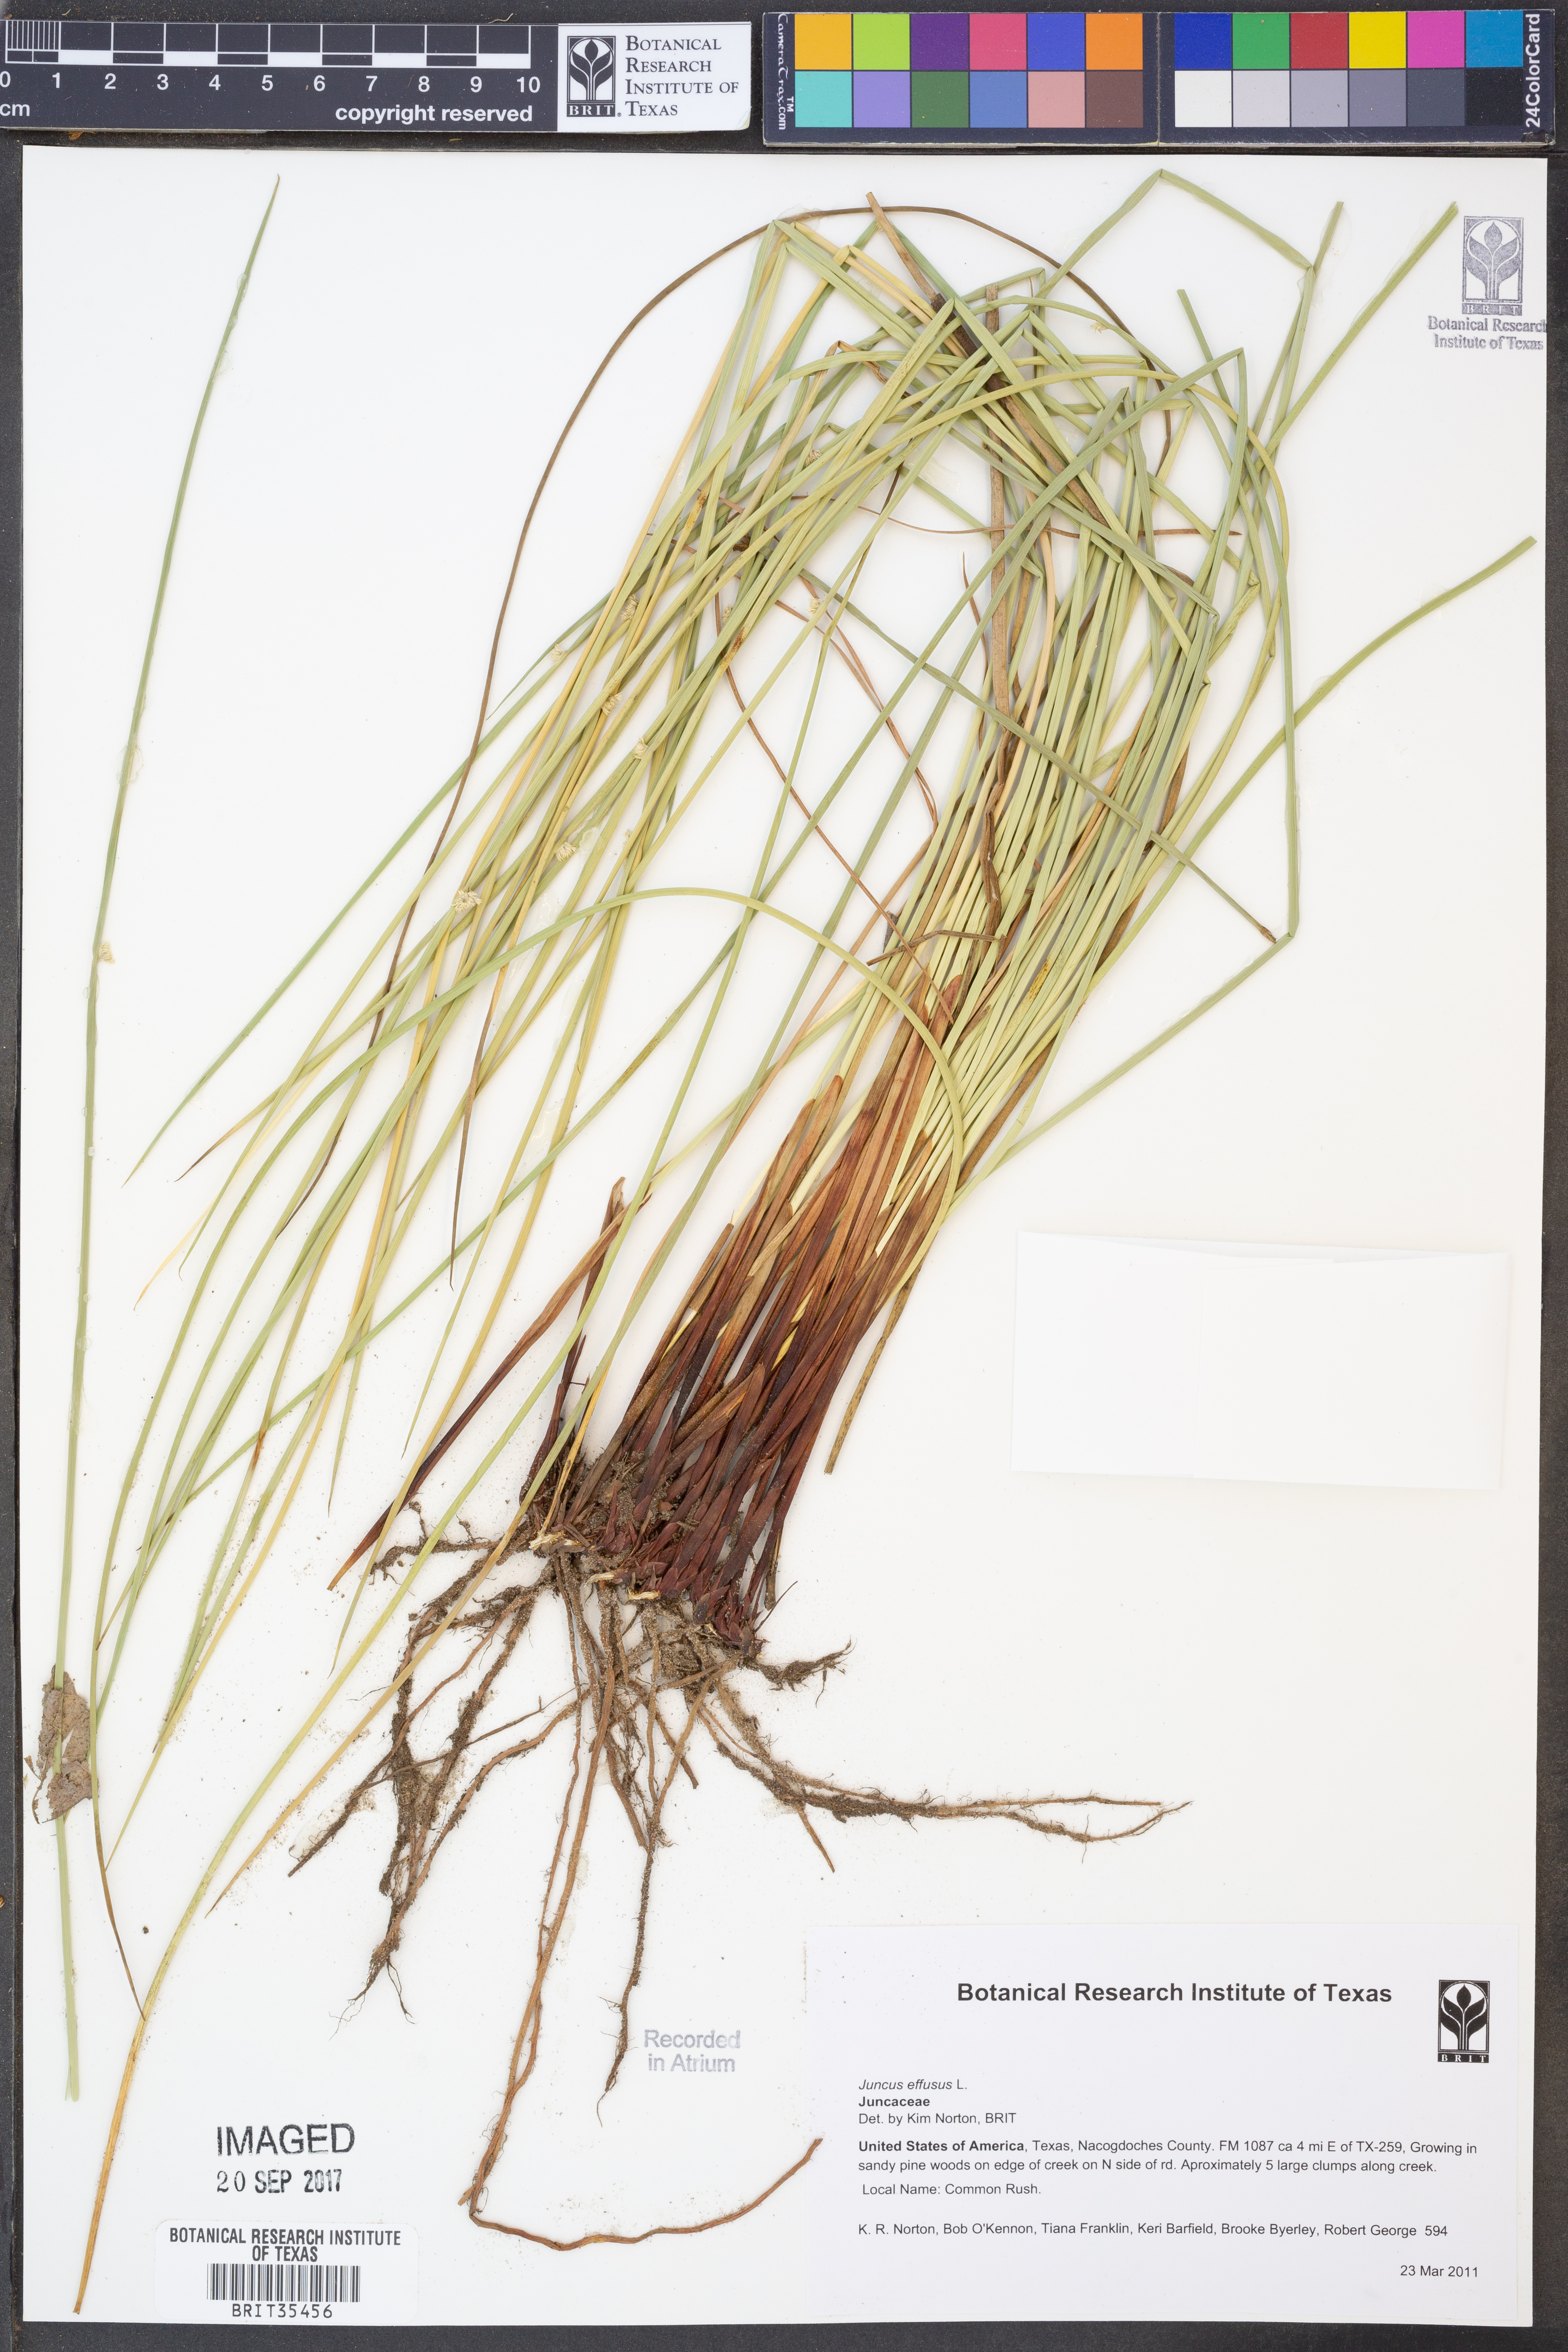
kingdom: Plantae
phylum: Tracheophyta
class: Liliopsida
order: Poales
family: Juncaceae
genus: Juncus
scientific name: Juncus effusus
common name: Soft rush
